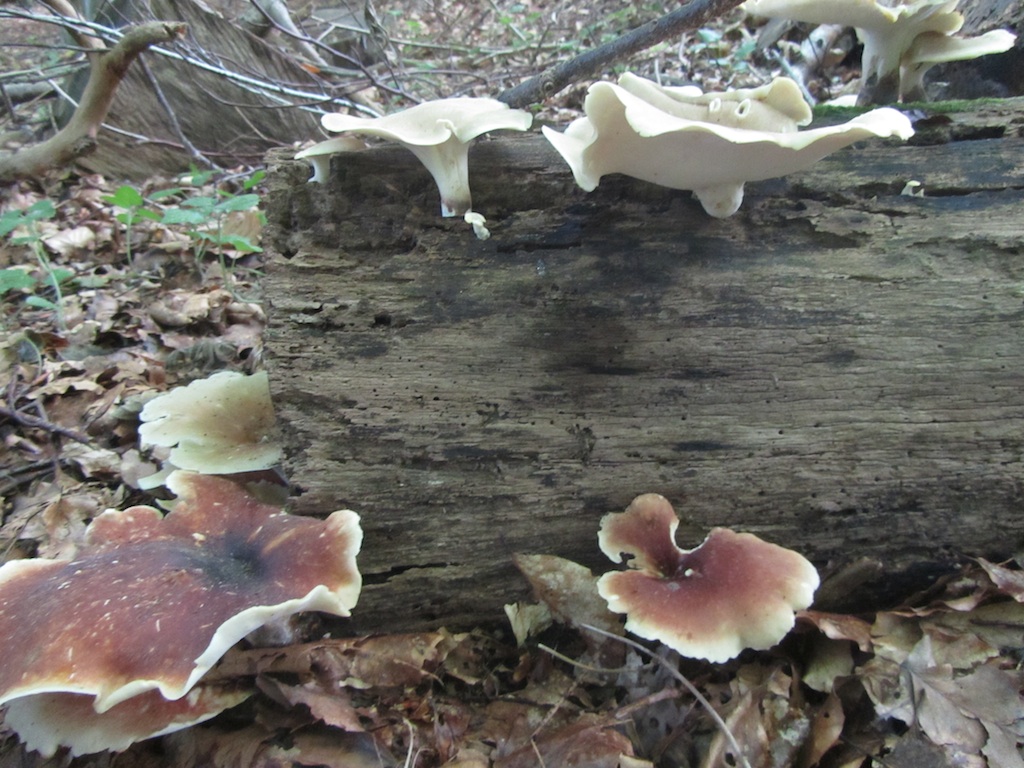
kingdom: Fungi
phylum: Basidiomycota
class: Agaricomycetes
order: Polyporales
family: Polyporaceae
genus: Picipes
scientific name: Picipes badius
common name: kastaniebrun stilkporesvamp
